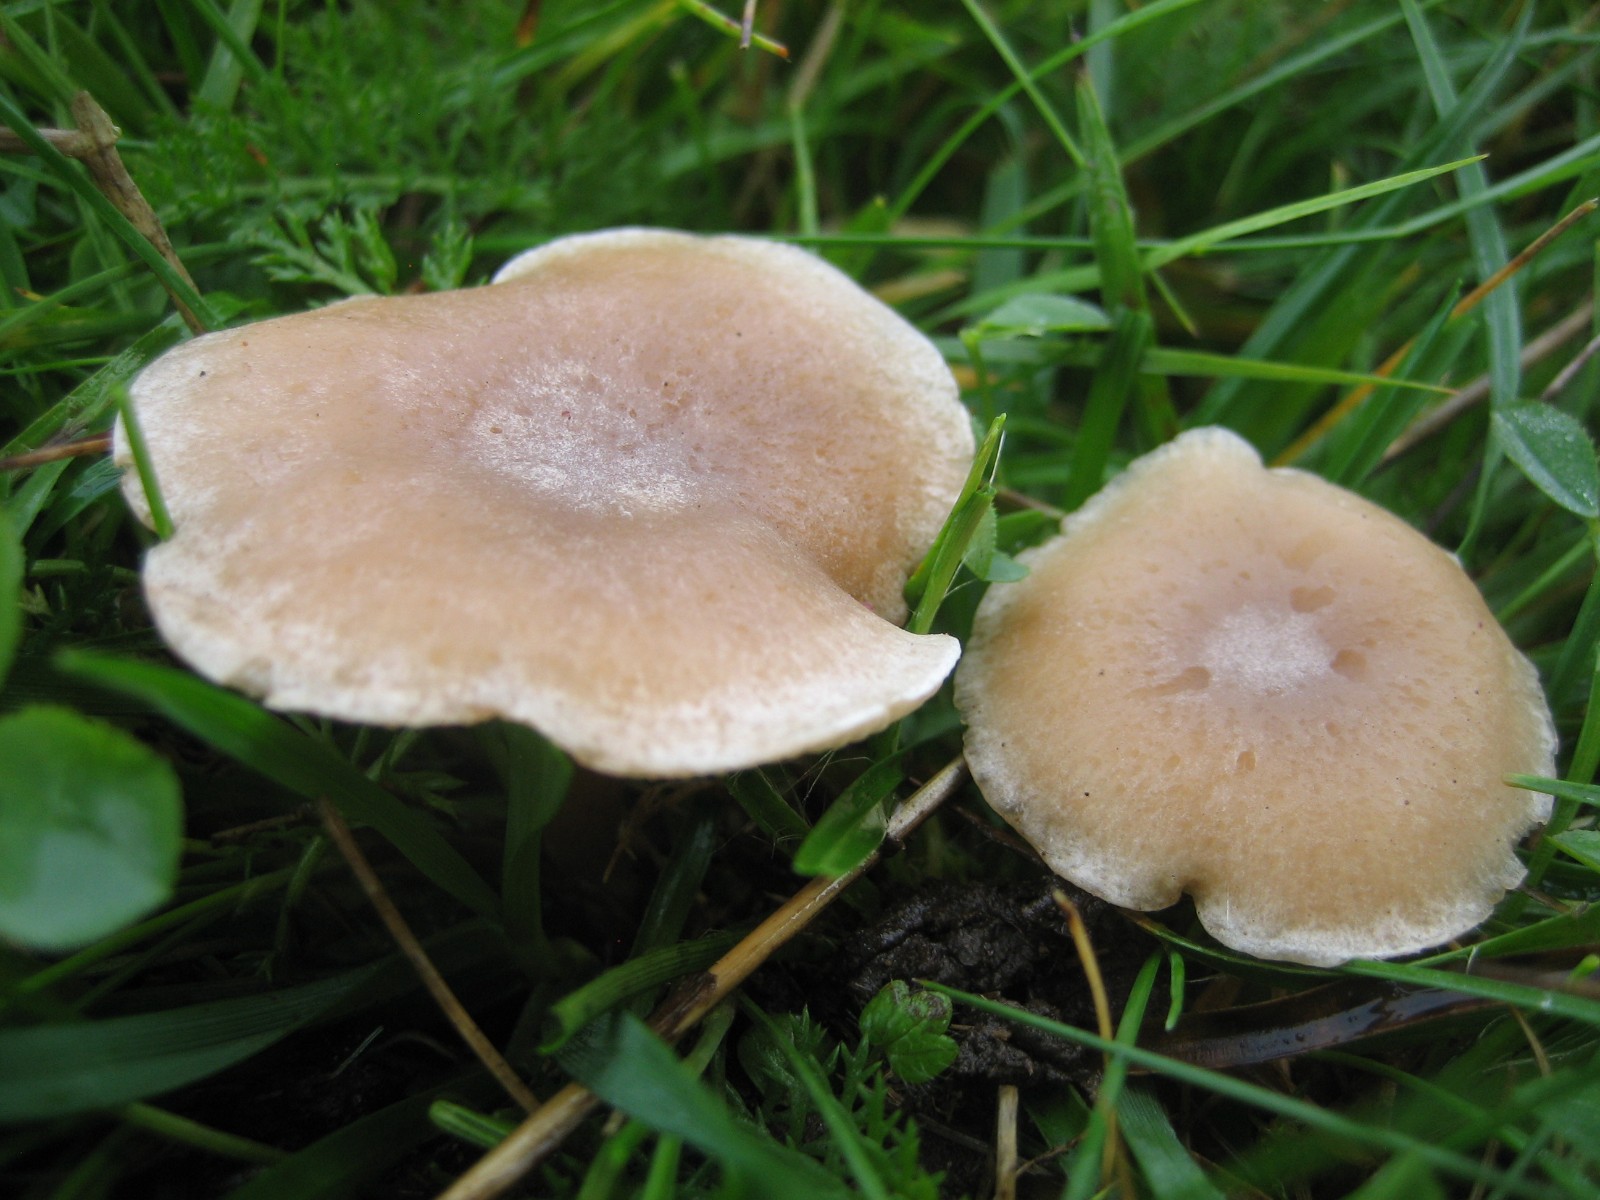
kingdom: Fungi
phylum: Basidiomycota
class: Agaricomycetes
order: Agaricales
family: Tricholomataceae
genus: Clitocybe
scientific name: Clitocybe rivulosa
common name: eng-tragthat
